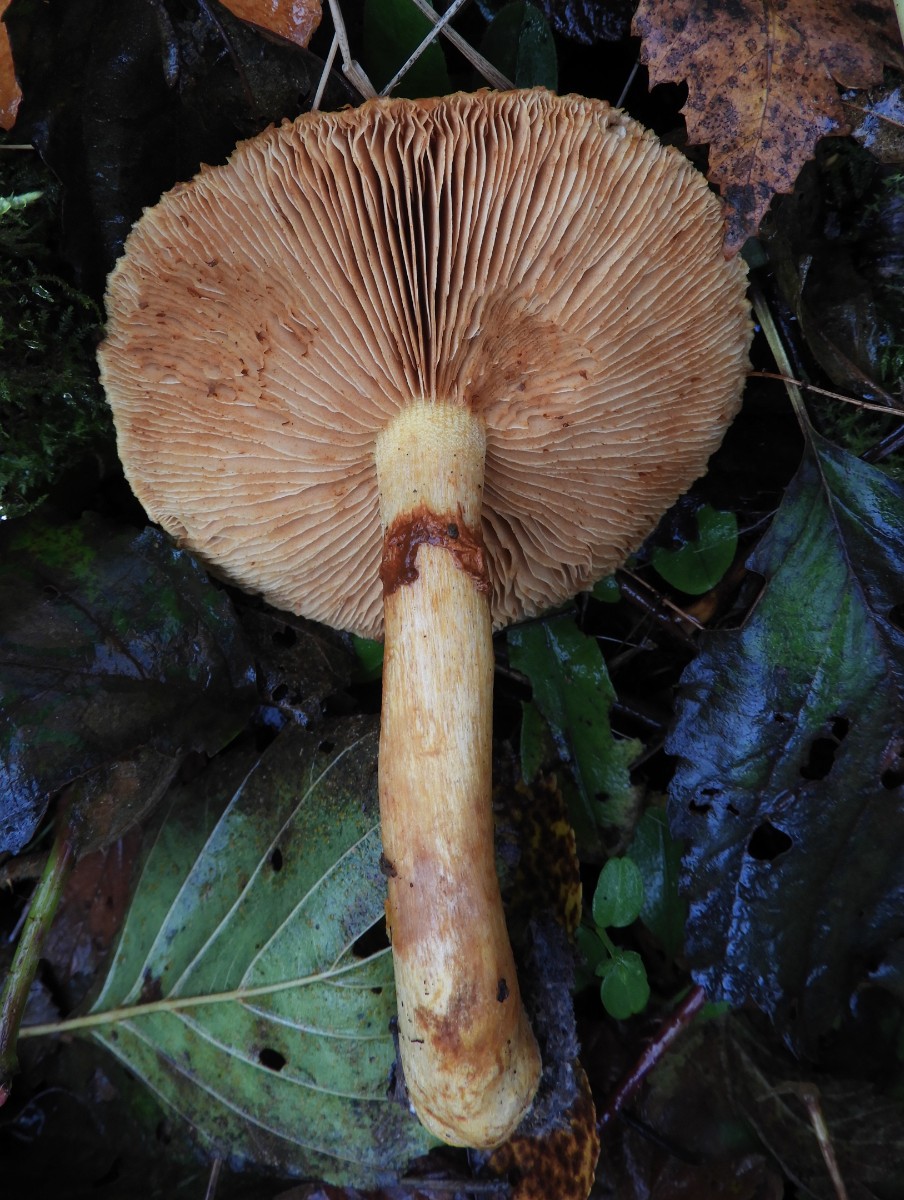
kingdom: Fungi
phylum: Basidiomycota
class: Agaricomycetes
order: Agaricales
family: Hymenogastraceae
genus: Gymnopilus
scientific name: Gymnopilus spectabilis
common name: fibret flammehat
